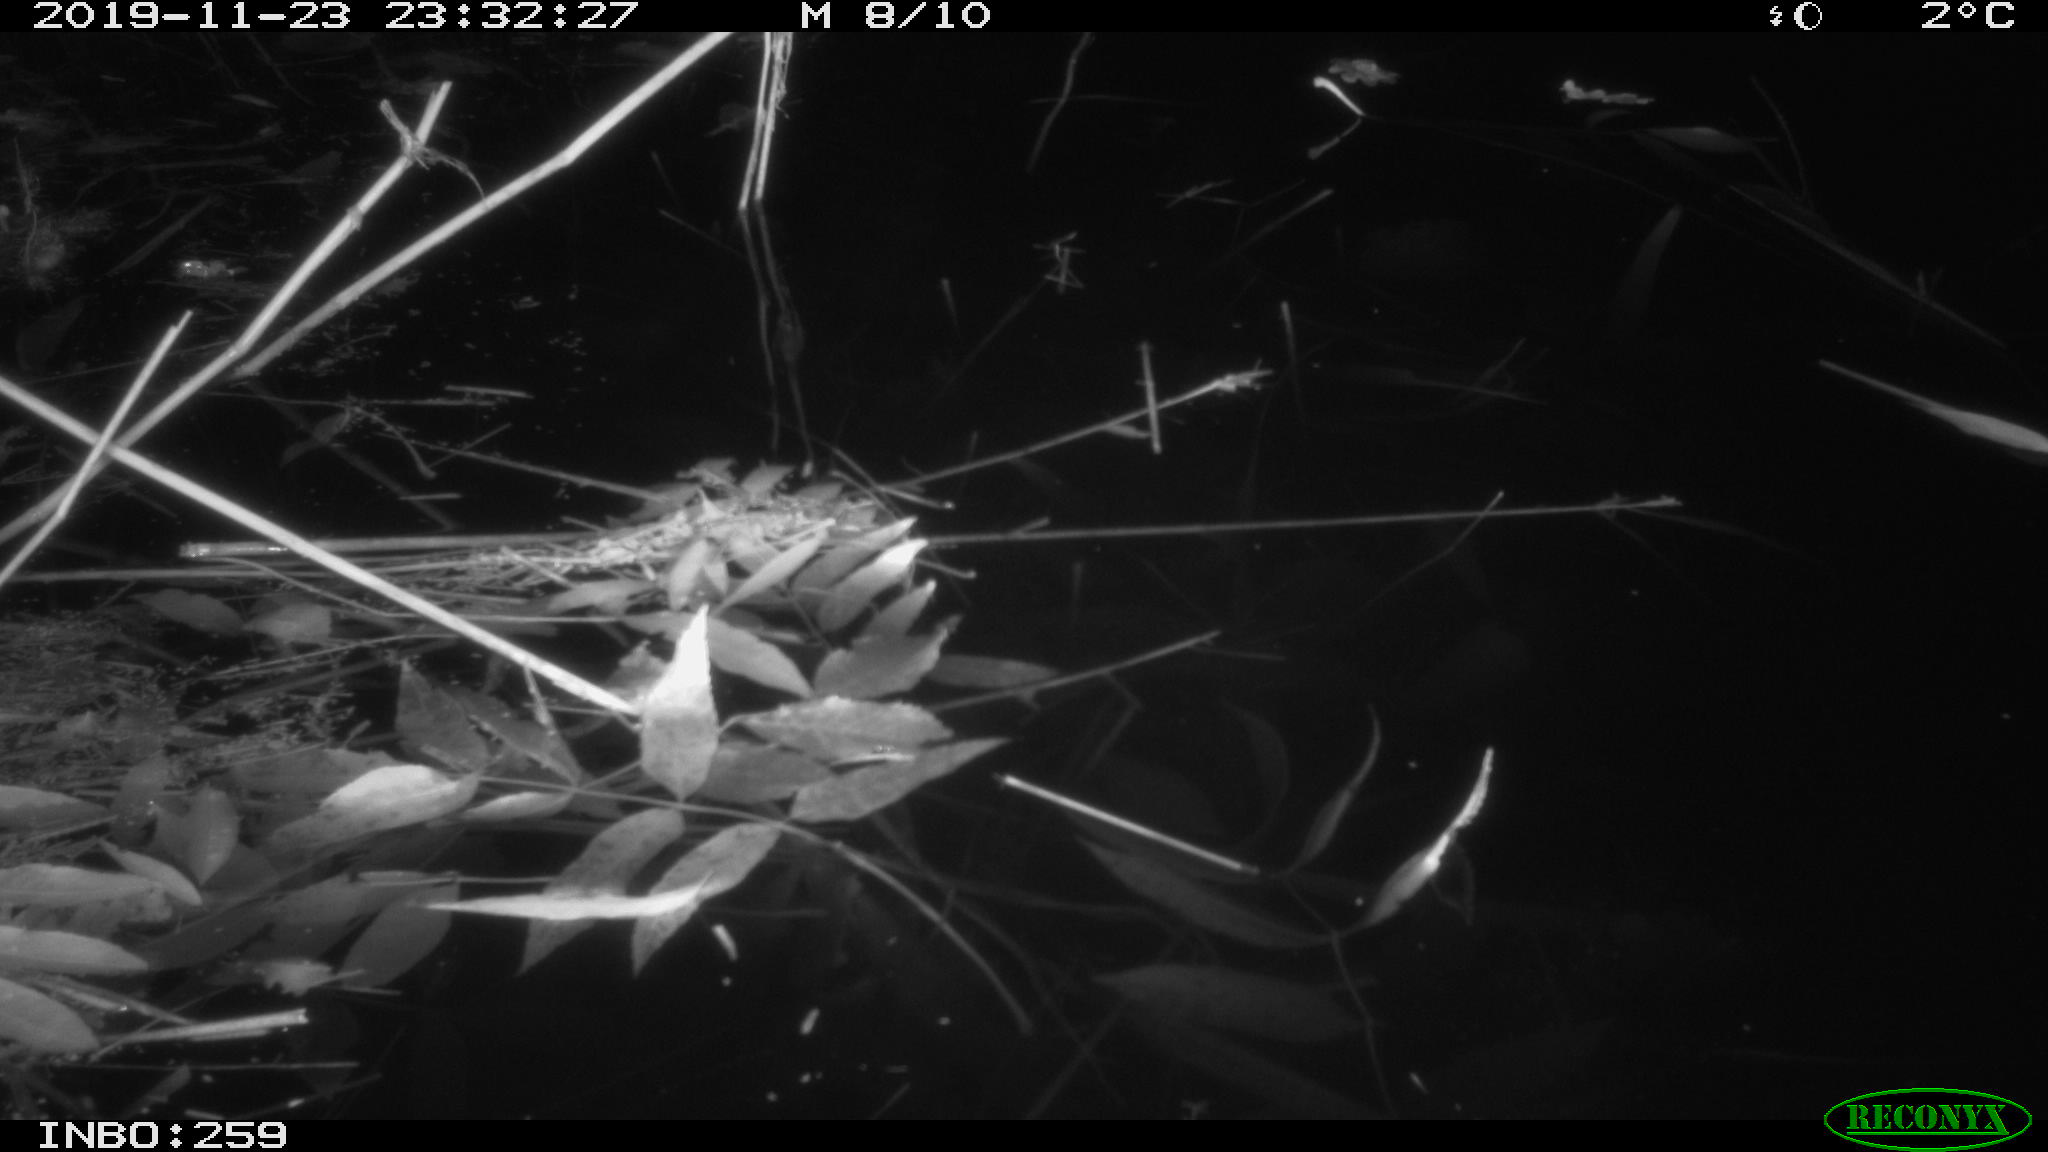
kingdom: Animalia
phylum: Chordata
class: Mammalia
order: Rodentia
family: Cricetidae
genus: Ondatra
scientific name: Ondatra zibethicus
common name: Muskrat
